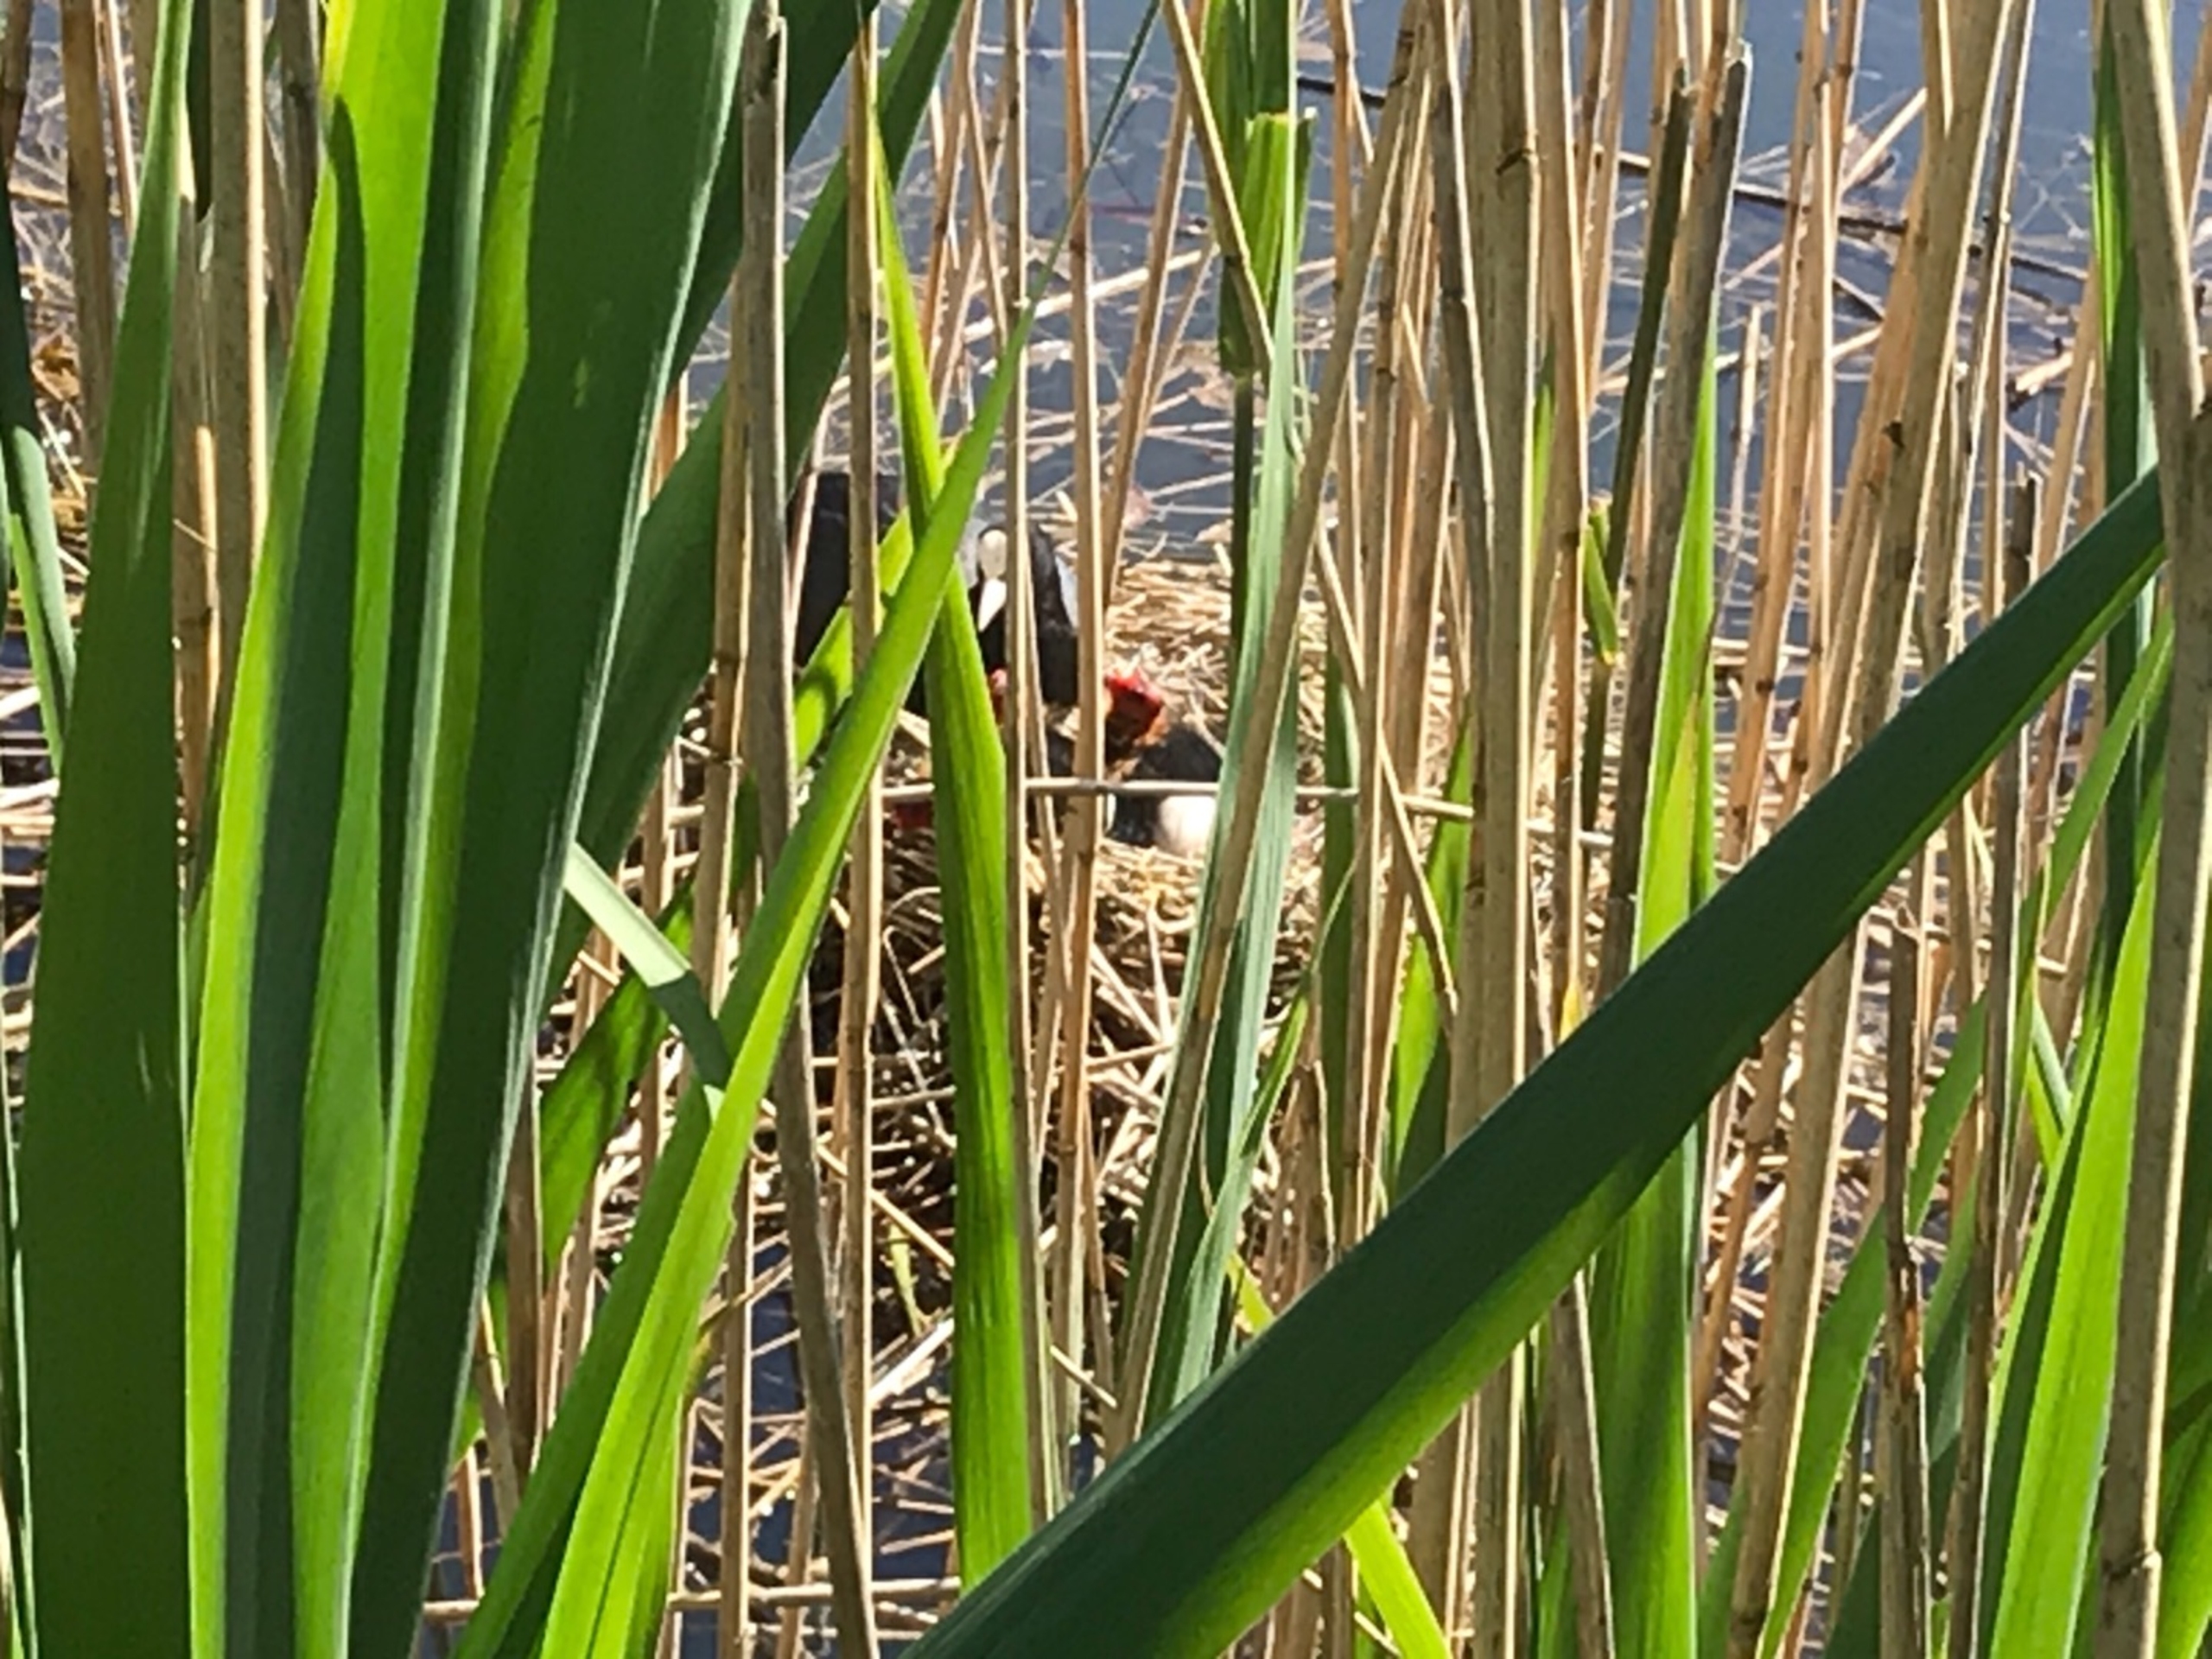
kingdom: Animalia
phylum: Chordata
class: Aves
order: Gruiformes
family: Rallidae
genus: Fulica
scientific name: Fulica atra
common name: Blishøne
